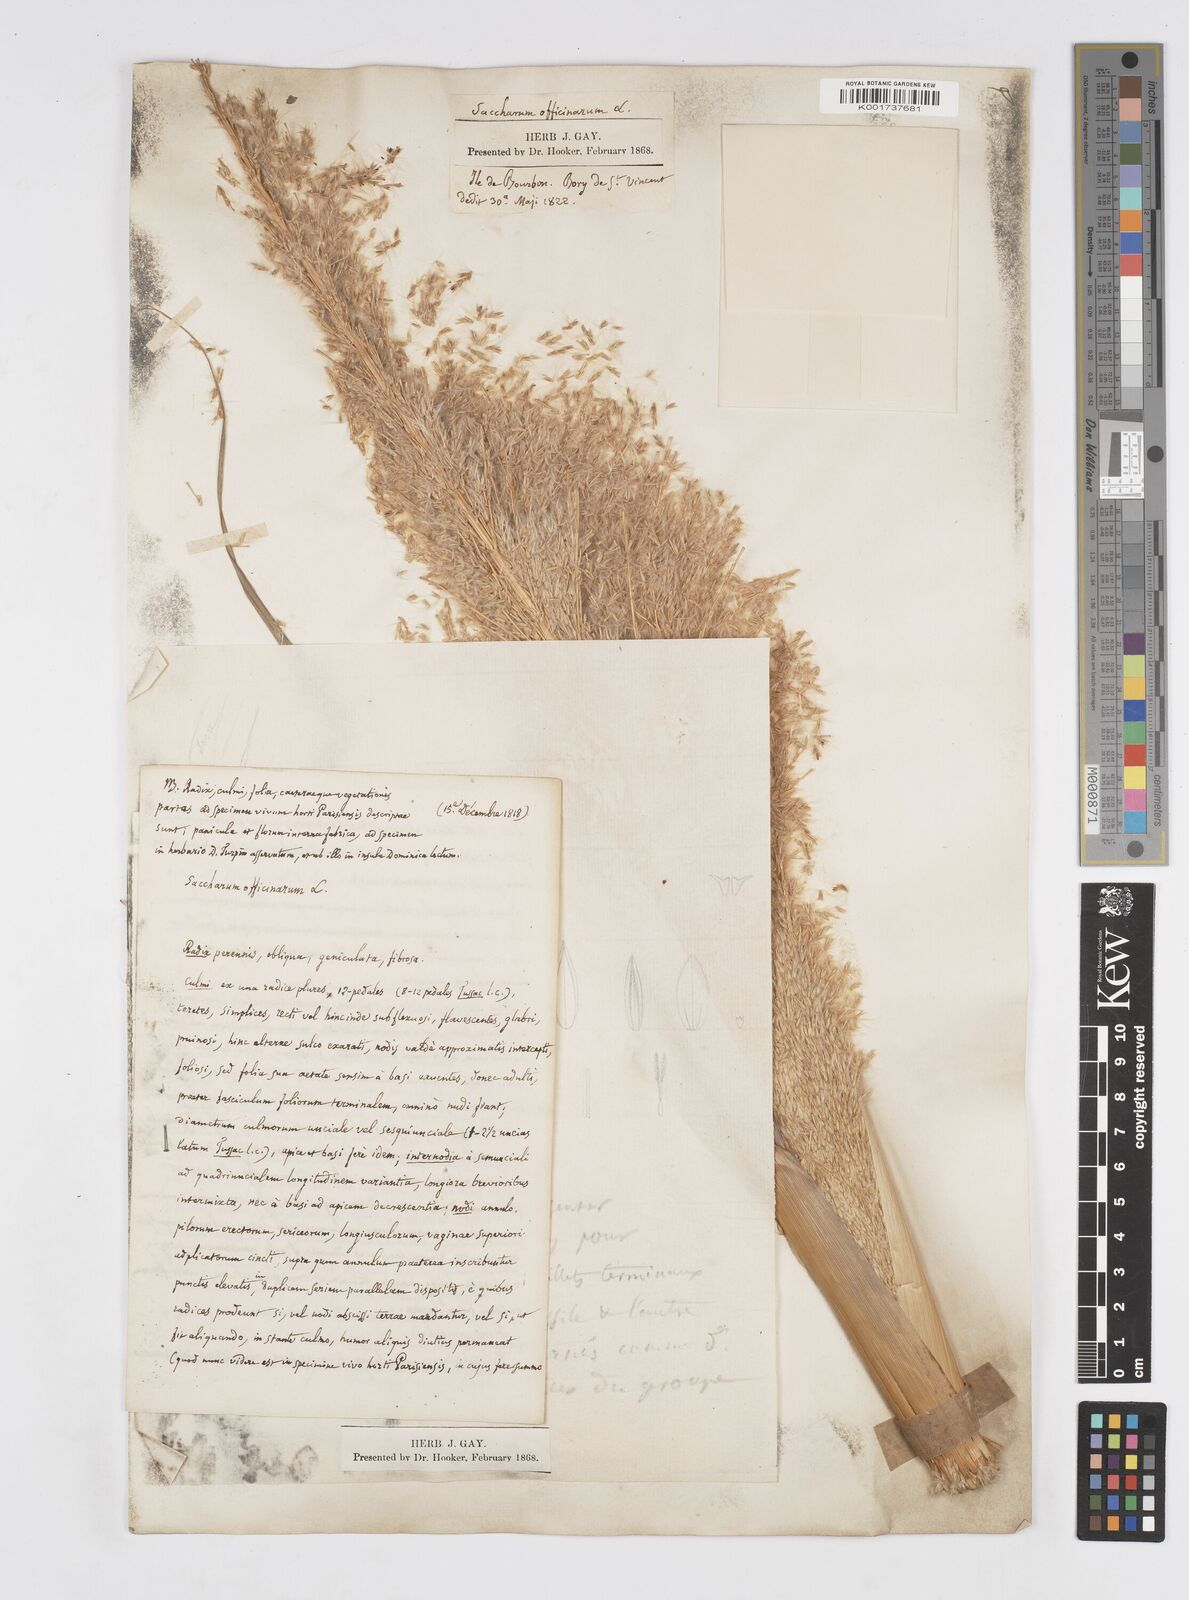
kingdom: Plantae
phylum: Tracheophyta
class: Liliopsida
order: Poales
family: Poaceae
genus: Saccharum
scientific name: Saccharum officinarum
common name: Sugarcane
